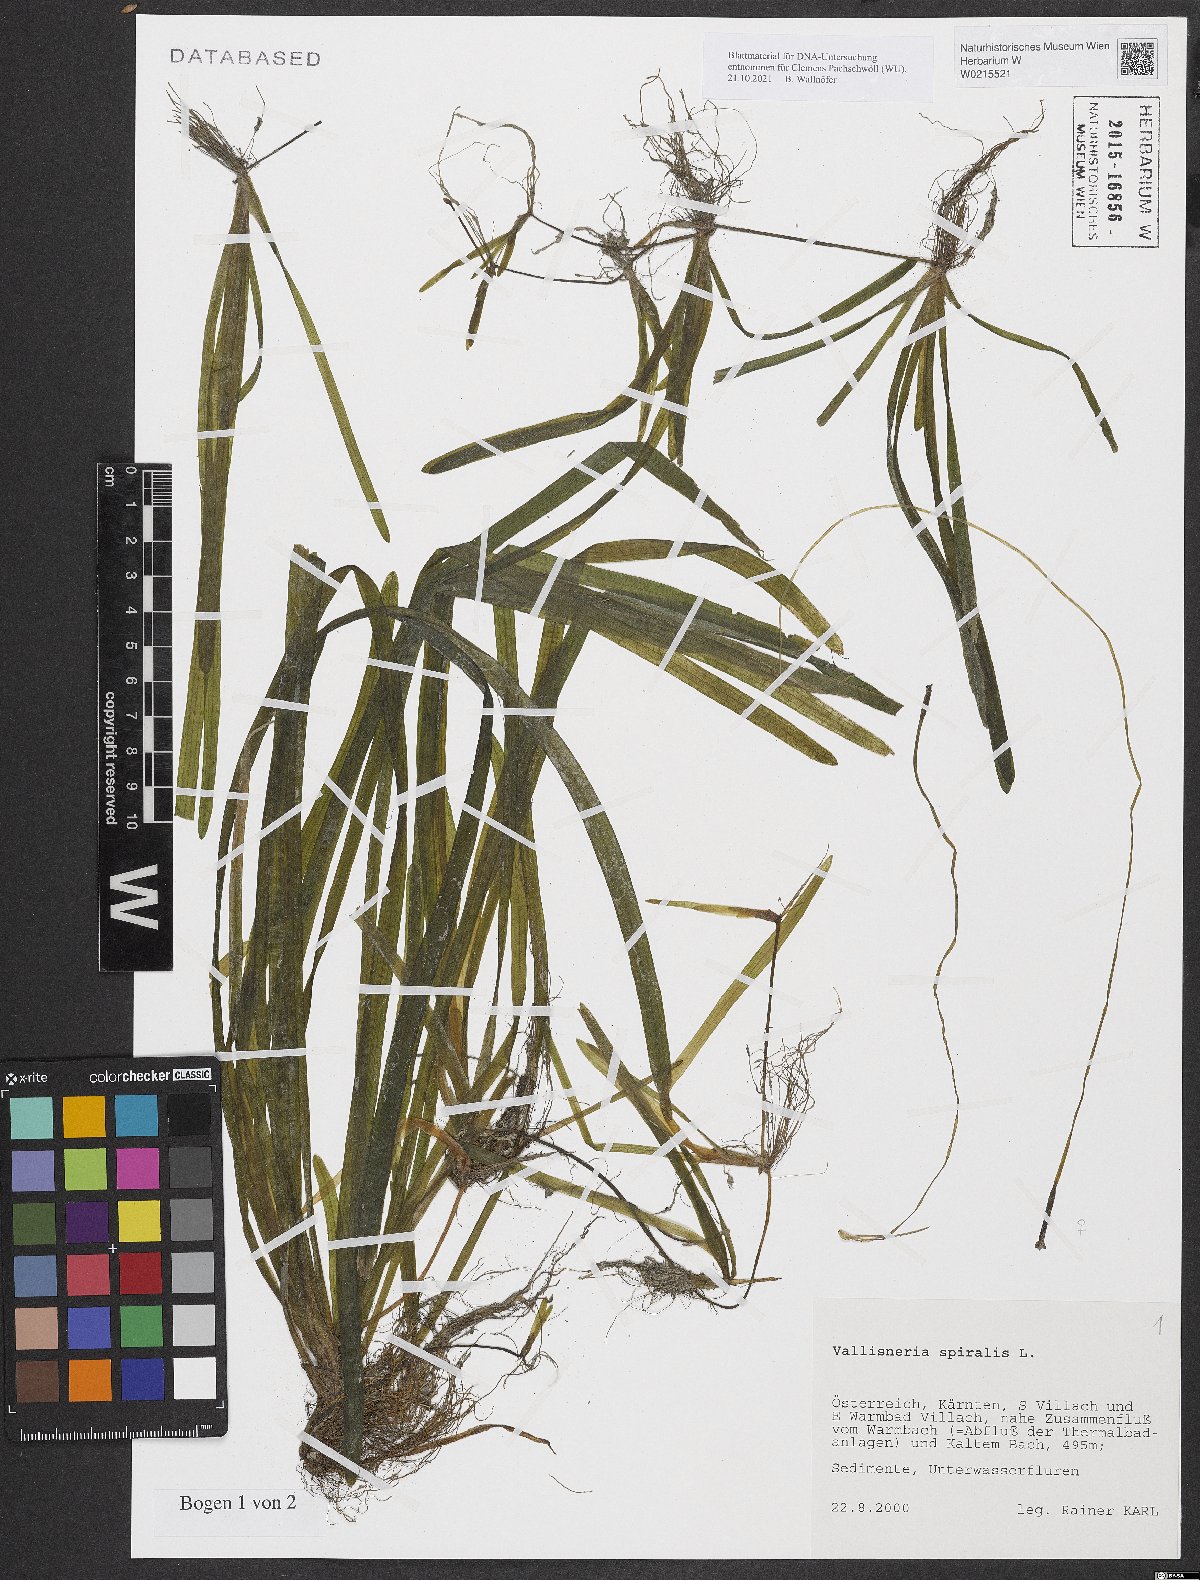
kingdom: Plantae
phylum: Tracheophyta
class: Liliopsida
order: Alismatales
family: Hydrocharitaceae
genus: Vallisneria
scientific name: Vallisneria spiralis
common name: Tapegrass
